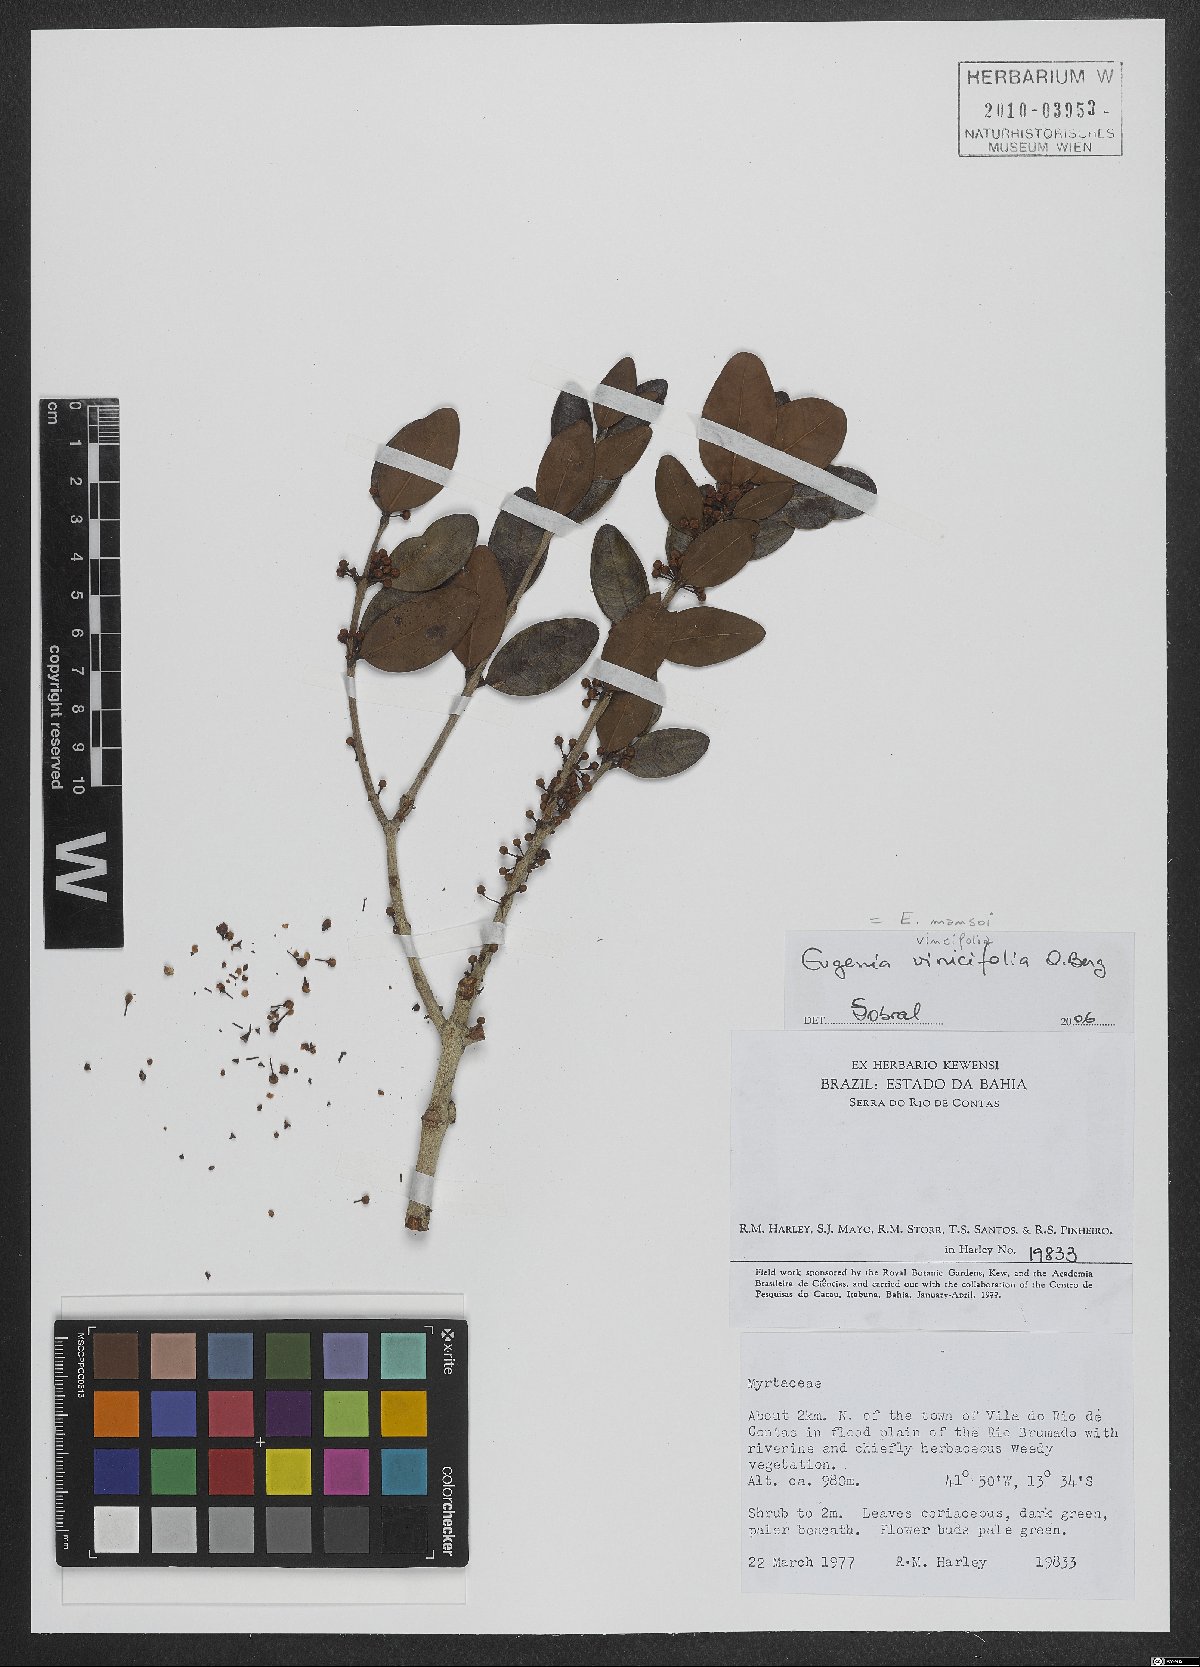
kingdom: Plantae
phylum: Tracheophyta
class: Magnoliopsida
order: Myrtales
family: Myrtaceae
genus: Eugenia
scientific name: Eugenia mansoi
